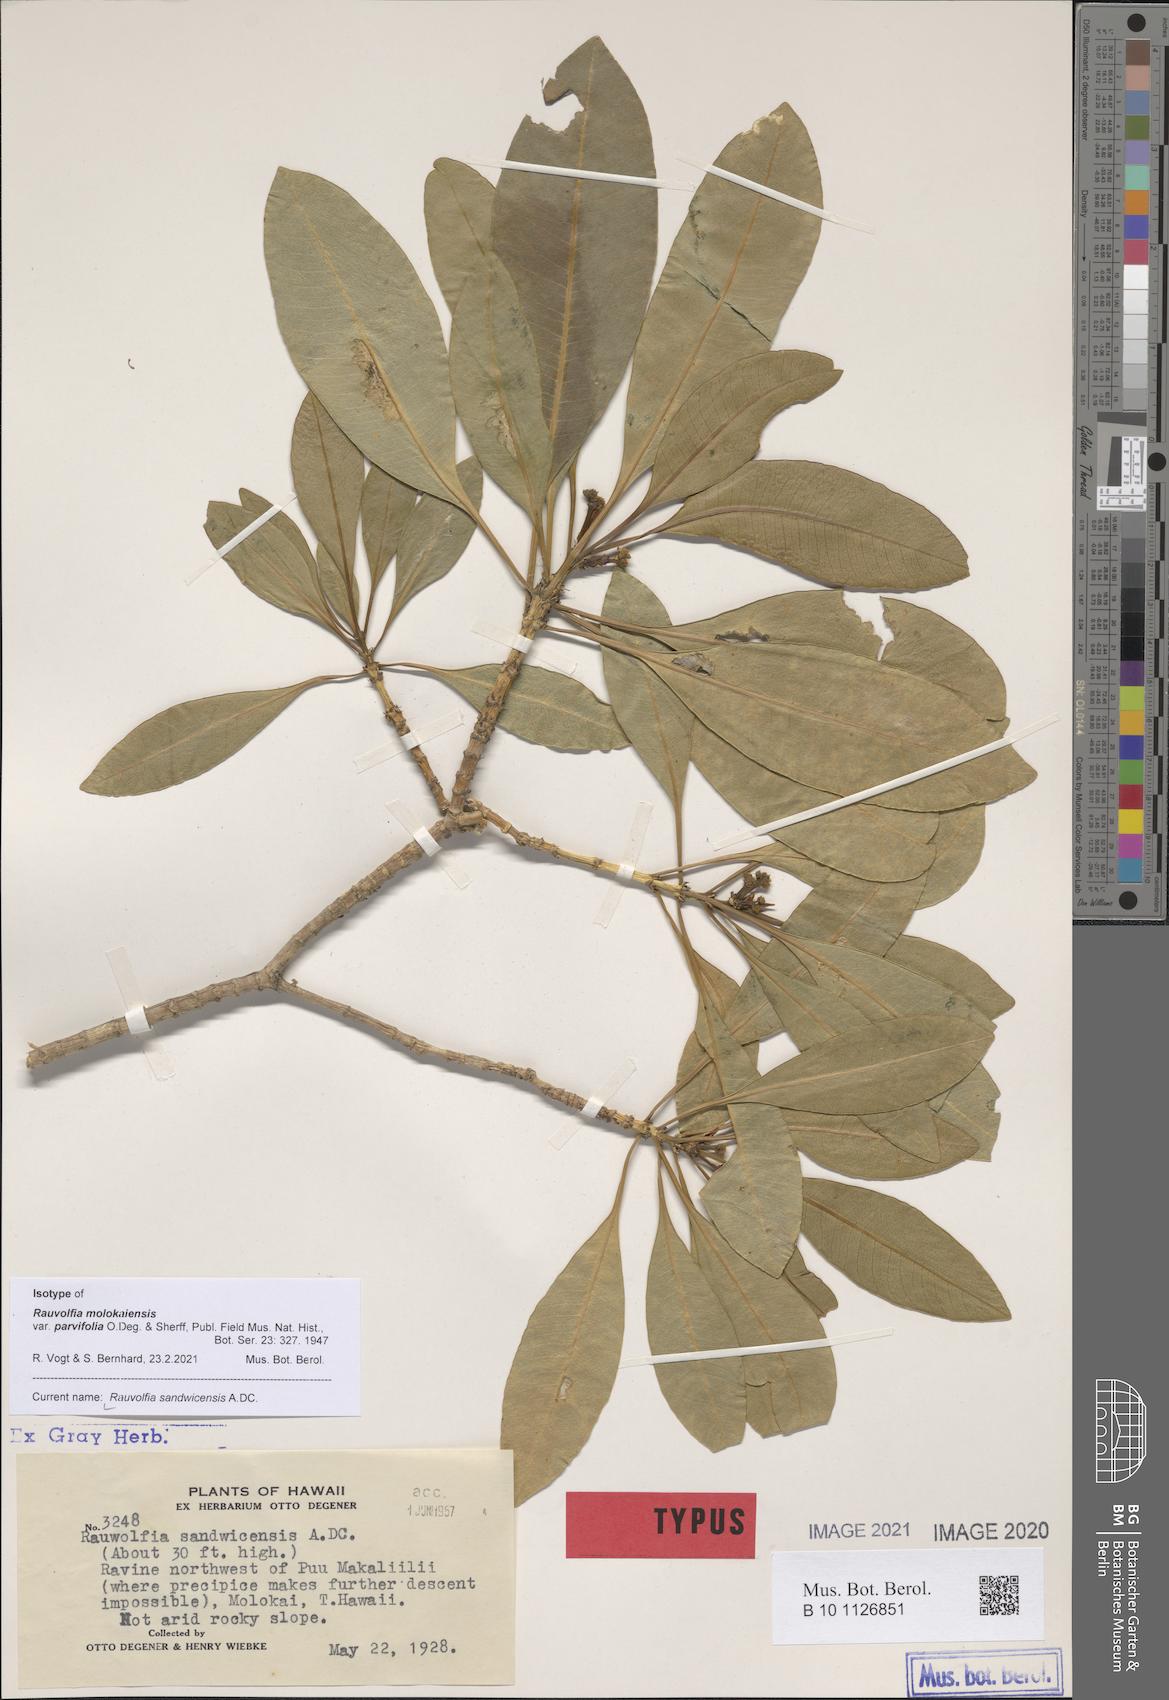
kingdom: Plantae
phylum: Tracheophyta
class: Magnoliopsida
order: Gentianales
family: Apocynaceae
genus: Rauvolfia
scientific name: Rauvolfia sandwicensis
